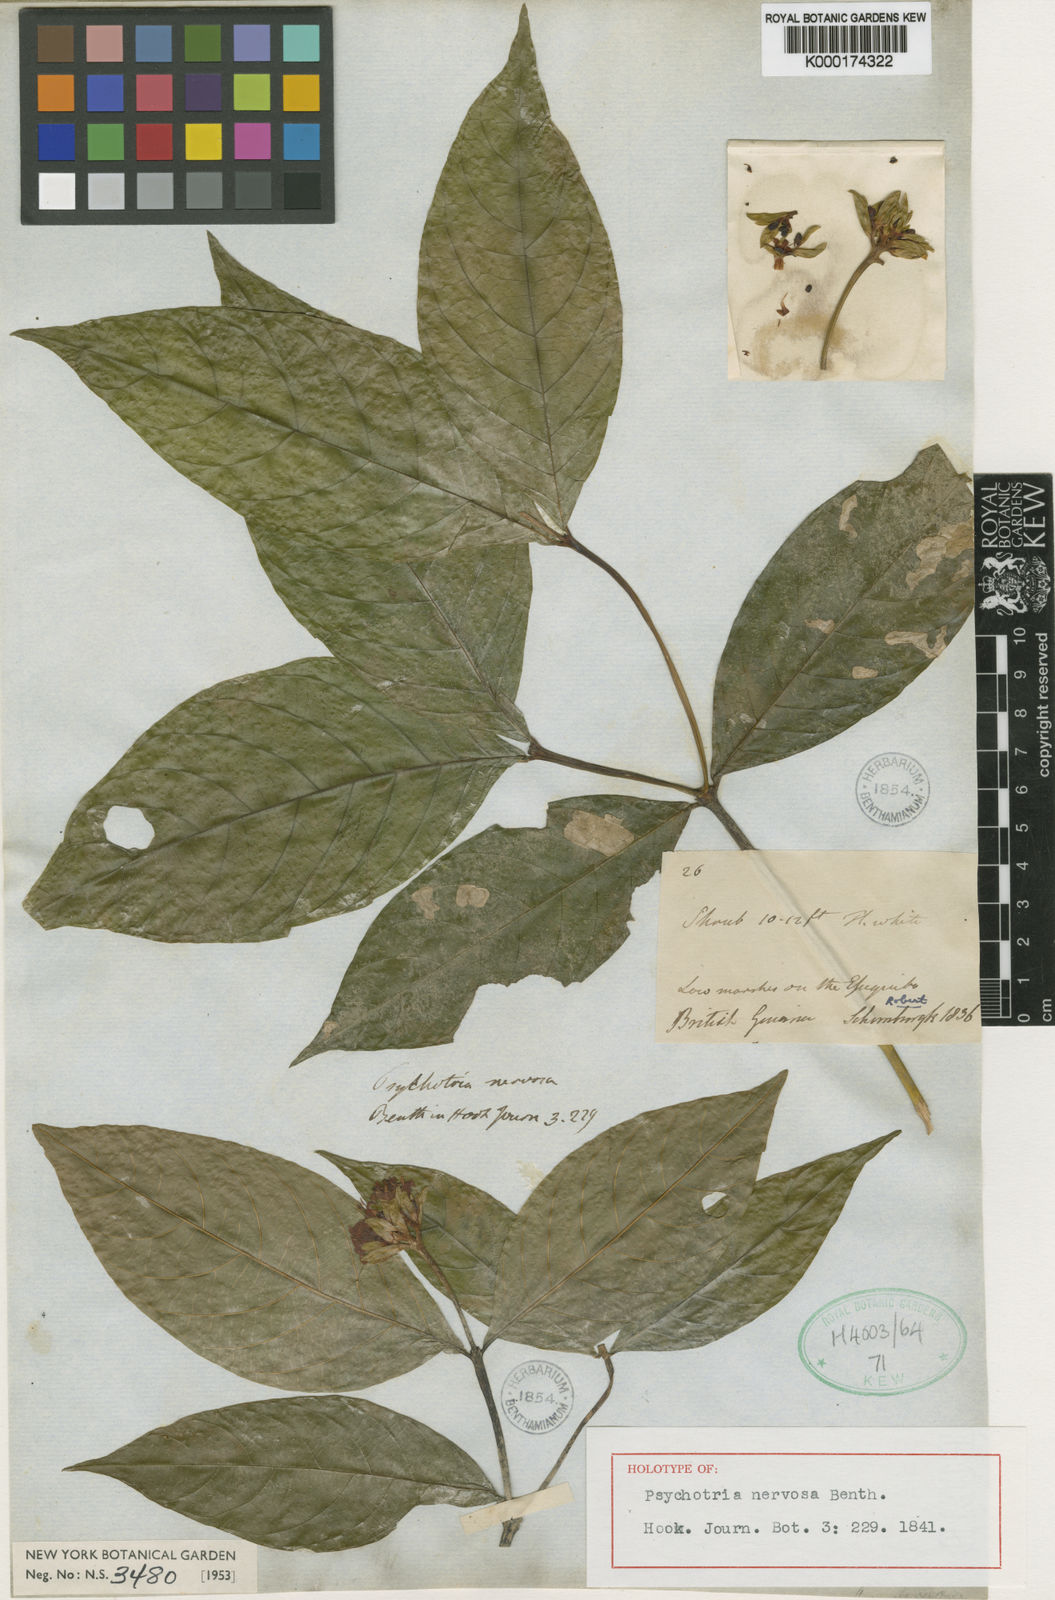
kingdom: Plantae
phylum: Tracheophyta
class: Magnoliopsida
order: Gentianales
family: Rubiaceae
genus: Palicourea
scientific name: Palicourea justiciifolia
